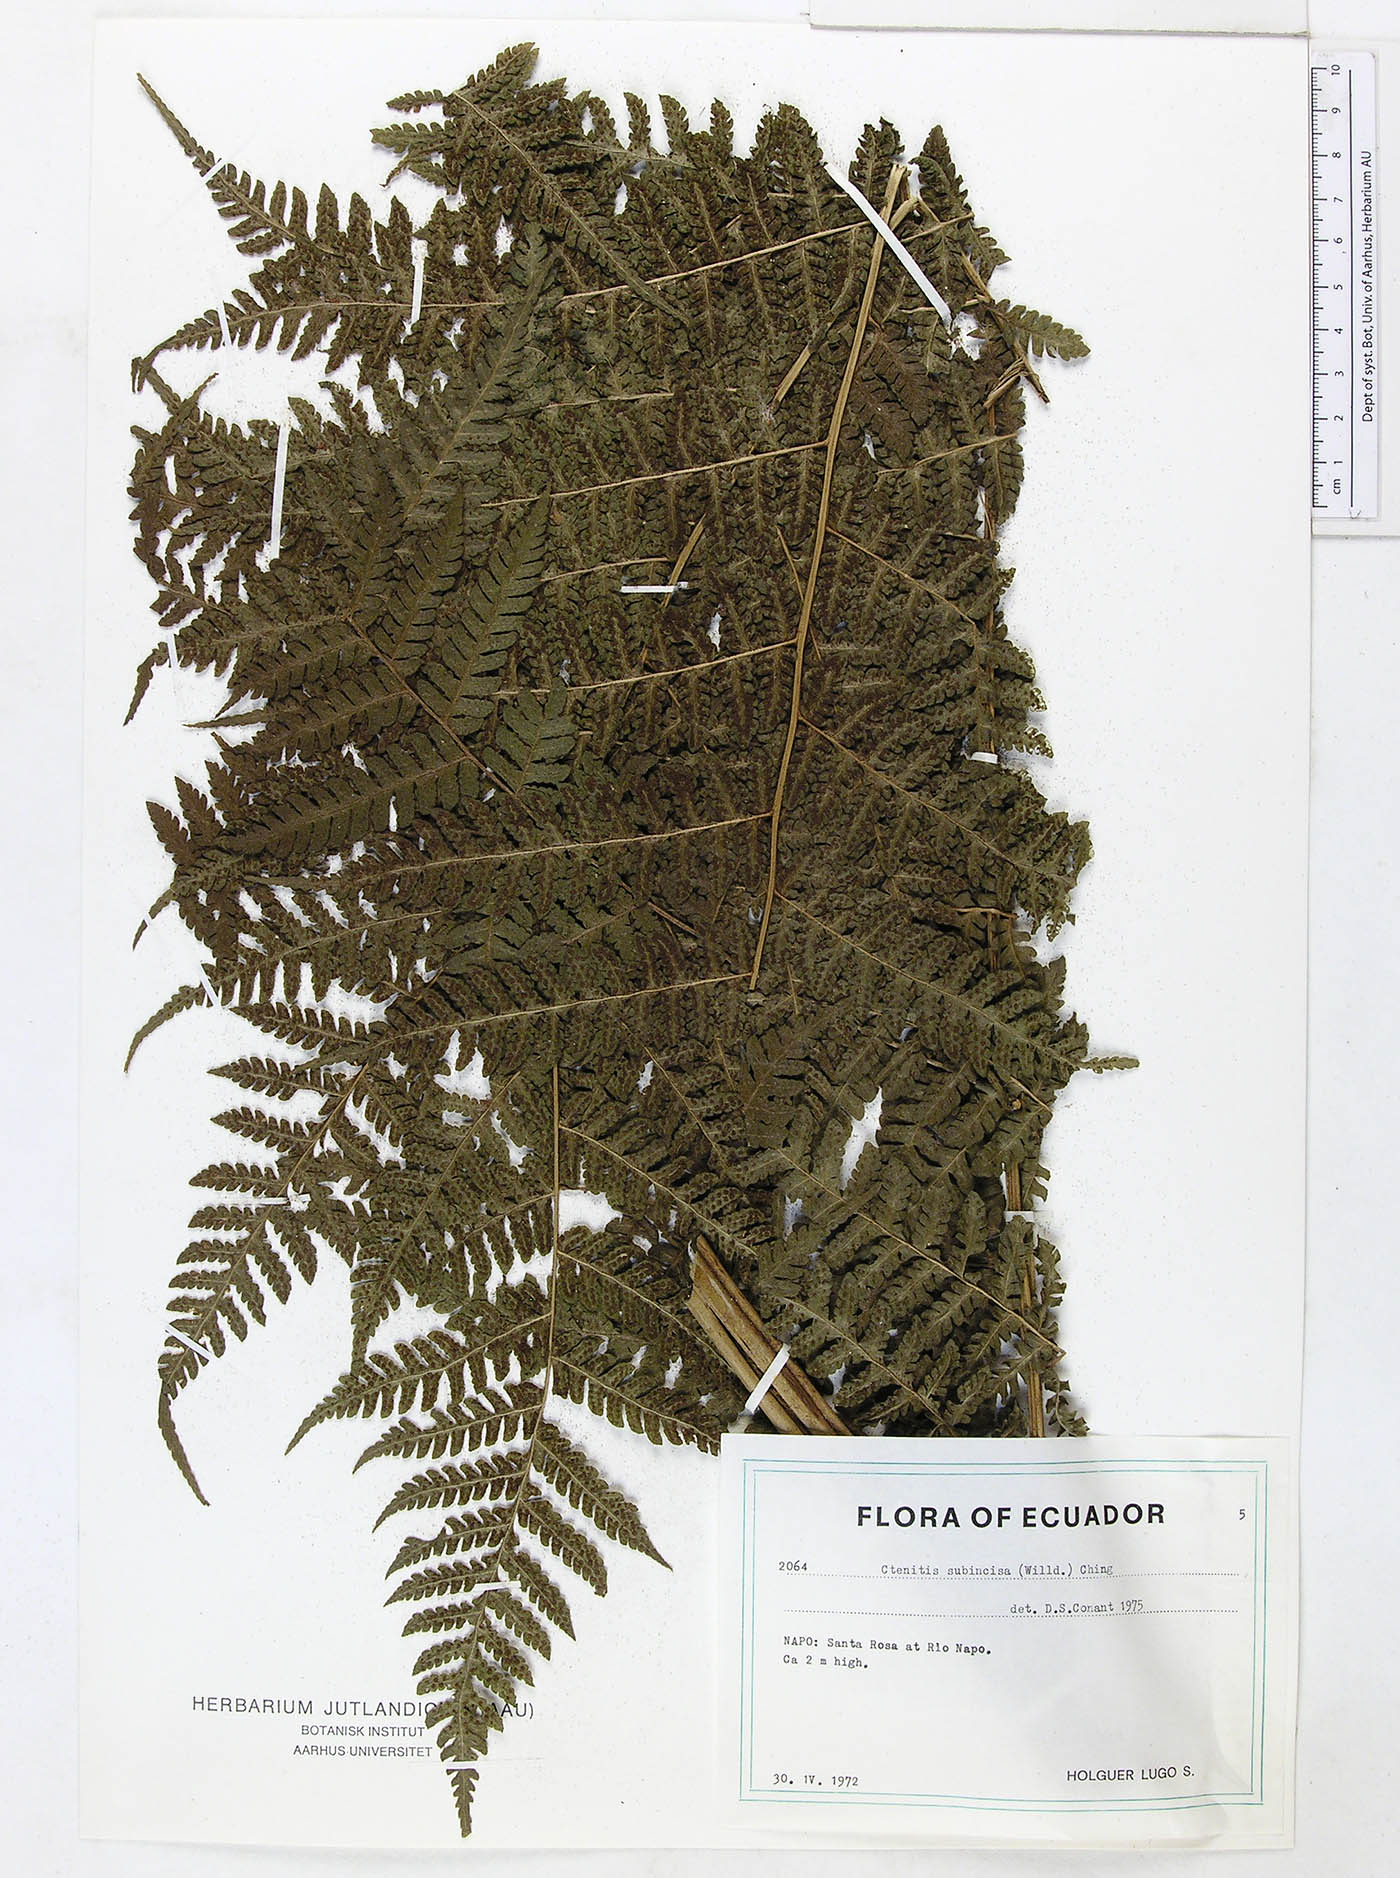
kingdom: Plantae
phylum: Tracheophyta
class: Polypodiopsida
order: Polypodiales
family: Dryopteridaceae
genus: Megalastrum
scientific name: Megalastrum praetermissum
